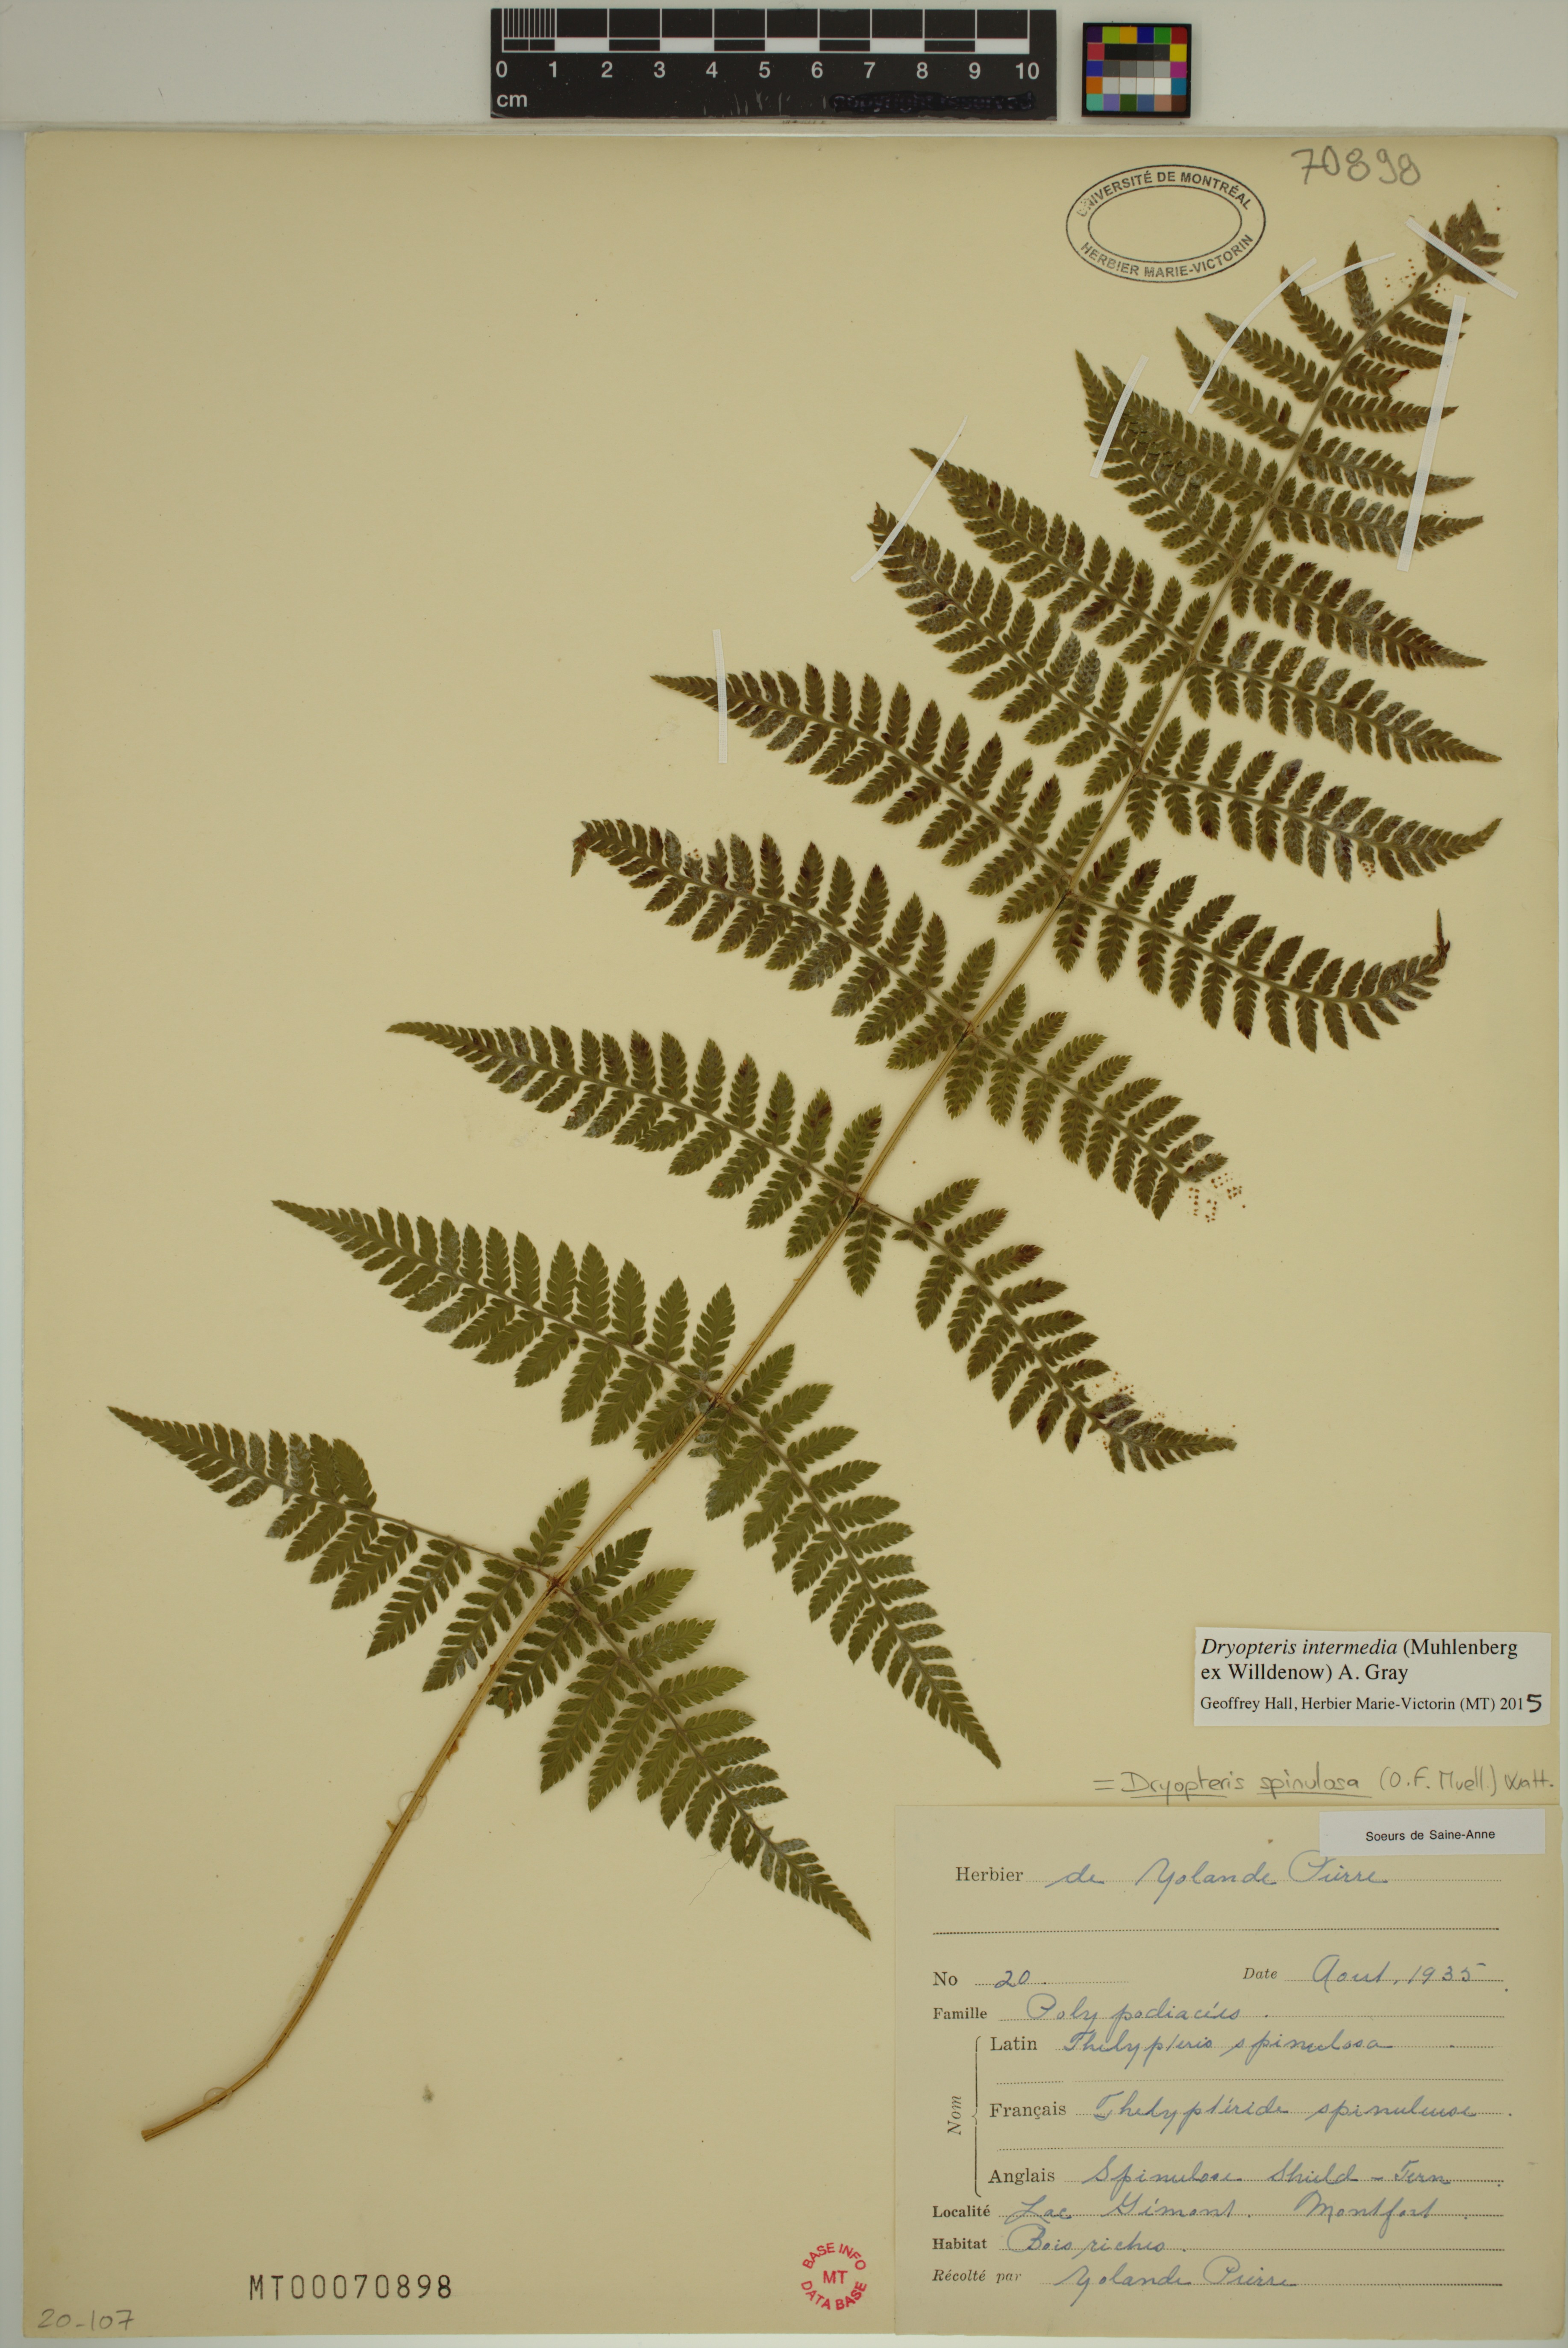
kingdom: Plantae
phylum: Tracheophyta
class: Polypodiopsida
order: Polypodiales
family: Dryopteridaceae
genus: Dryopteris
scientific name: Dryopteris intermedia
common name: Evergreen wood fern
